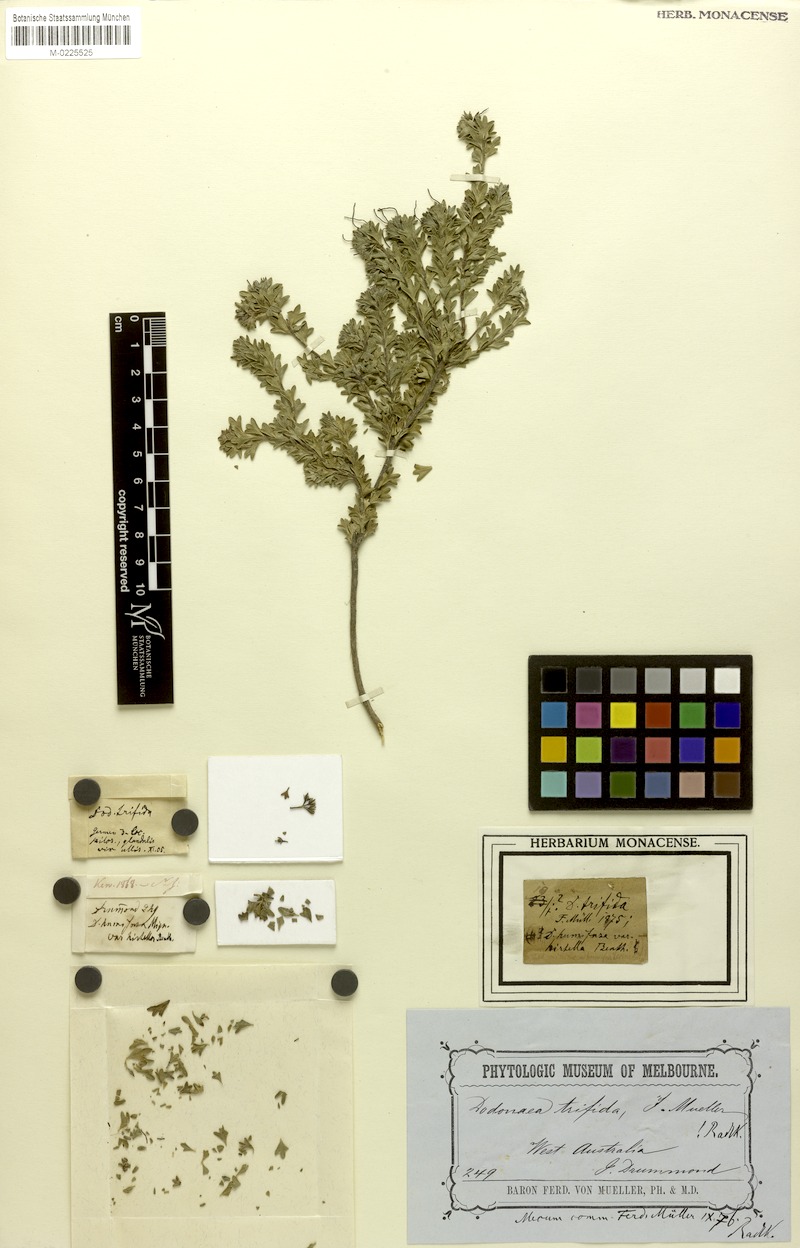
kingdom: Plantae
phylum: Tracheophyta
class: Magnoliopsida
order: Sapindales
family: Sapindaceae
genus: Dodonaea
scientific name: Dodonaea trifida
